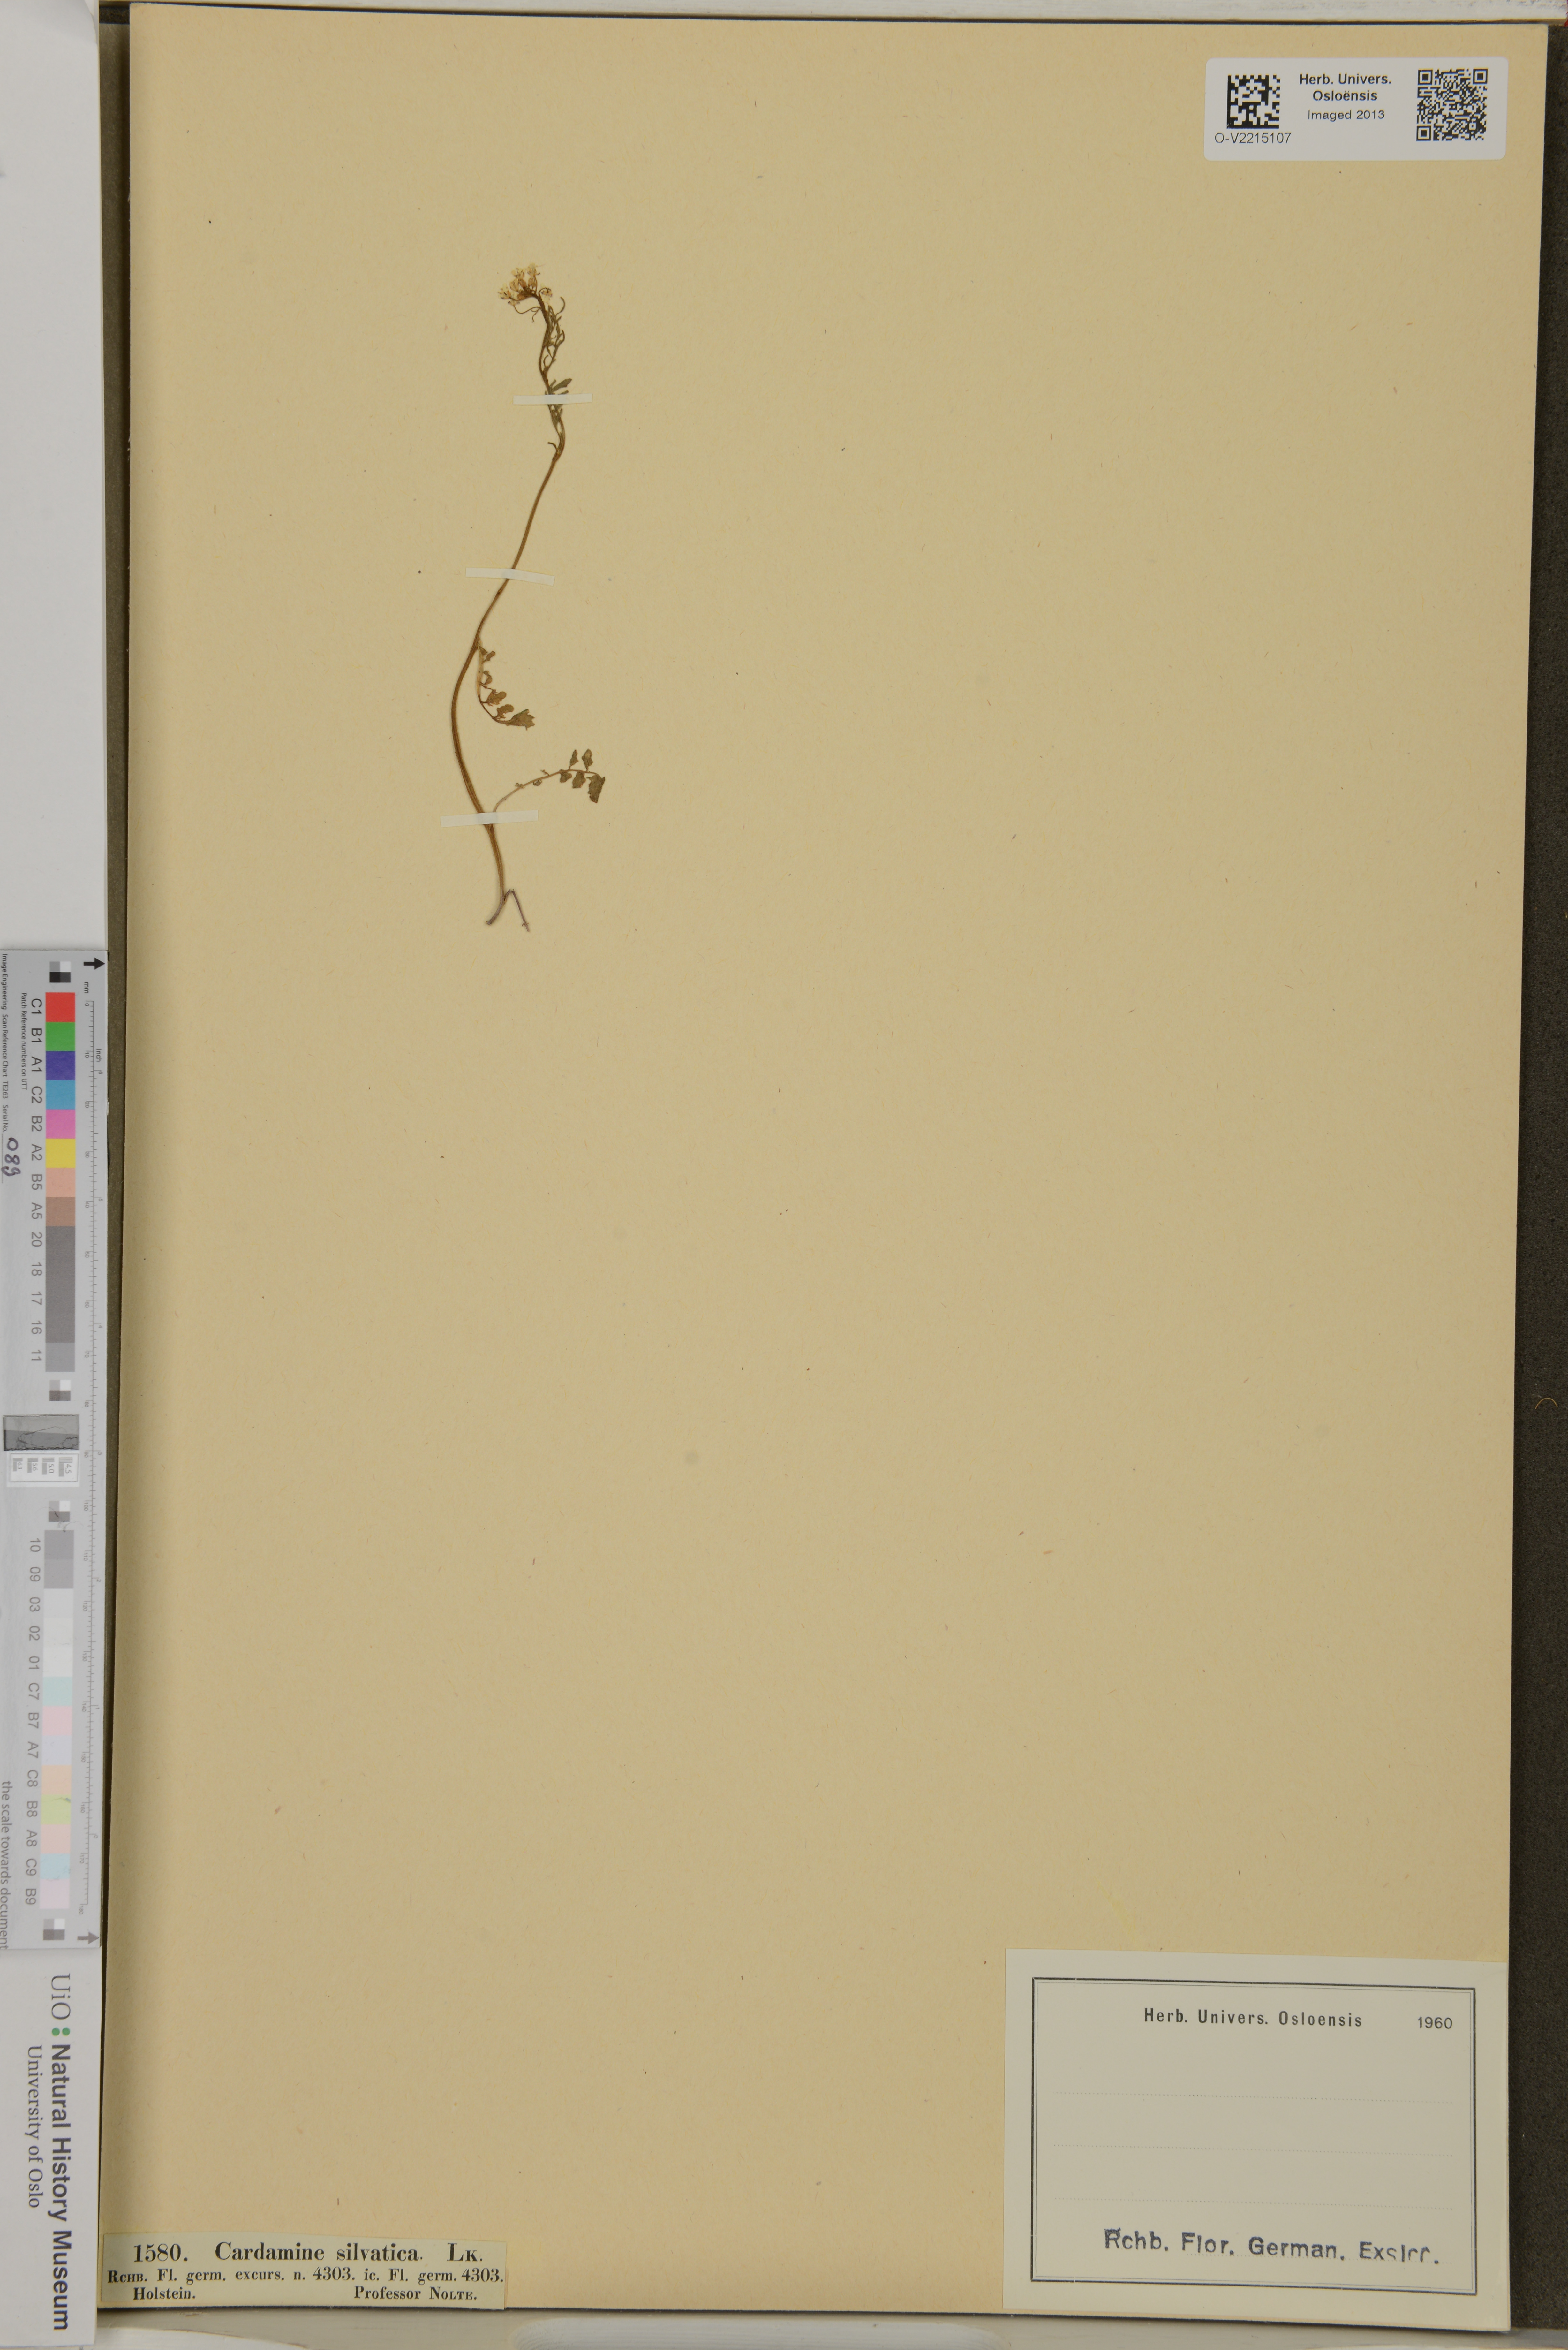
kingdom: Plantae
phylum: Tracheophyta
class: Magnoliopsida
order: Brassicales
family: Brassicaceae
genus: Cardamine
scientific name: Cardamine flexuosa
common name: Woodland bittercress
